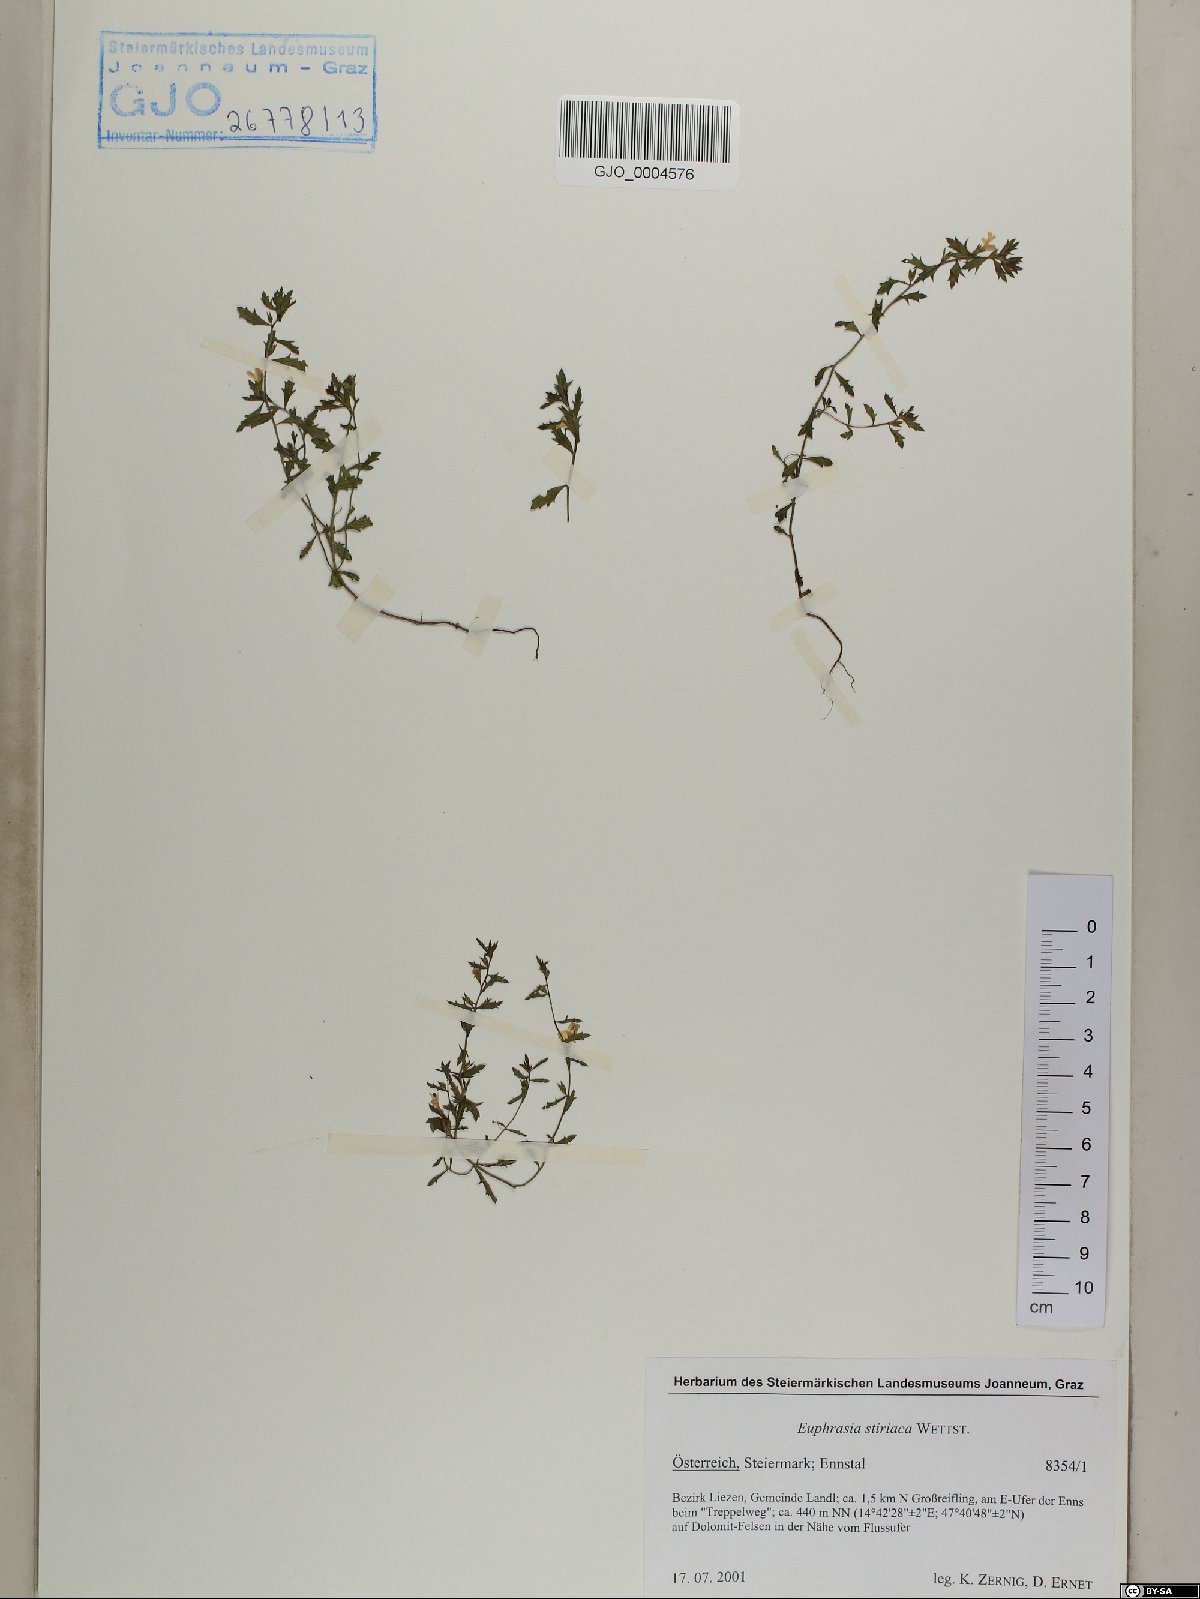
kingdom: Plantae
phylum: Tracheophyta
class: Magnoliopsida
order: Lamiales
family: Orobanchaceae
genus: Euphrasia
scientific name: Euphrasia cuspidata
